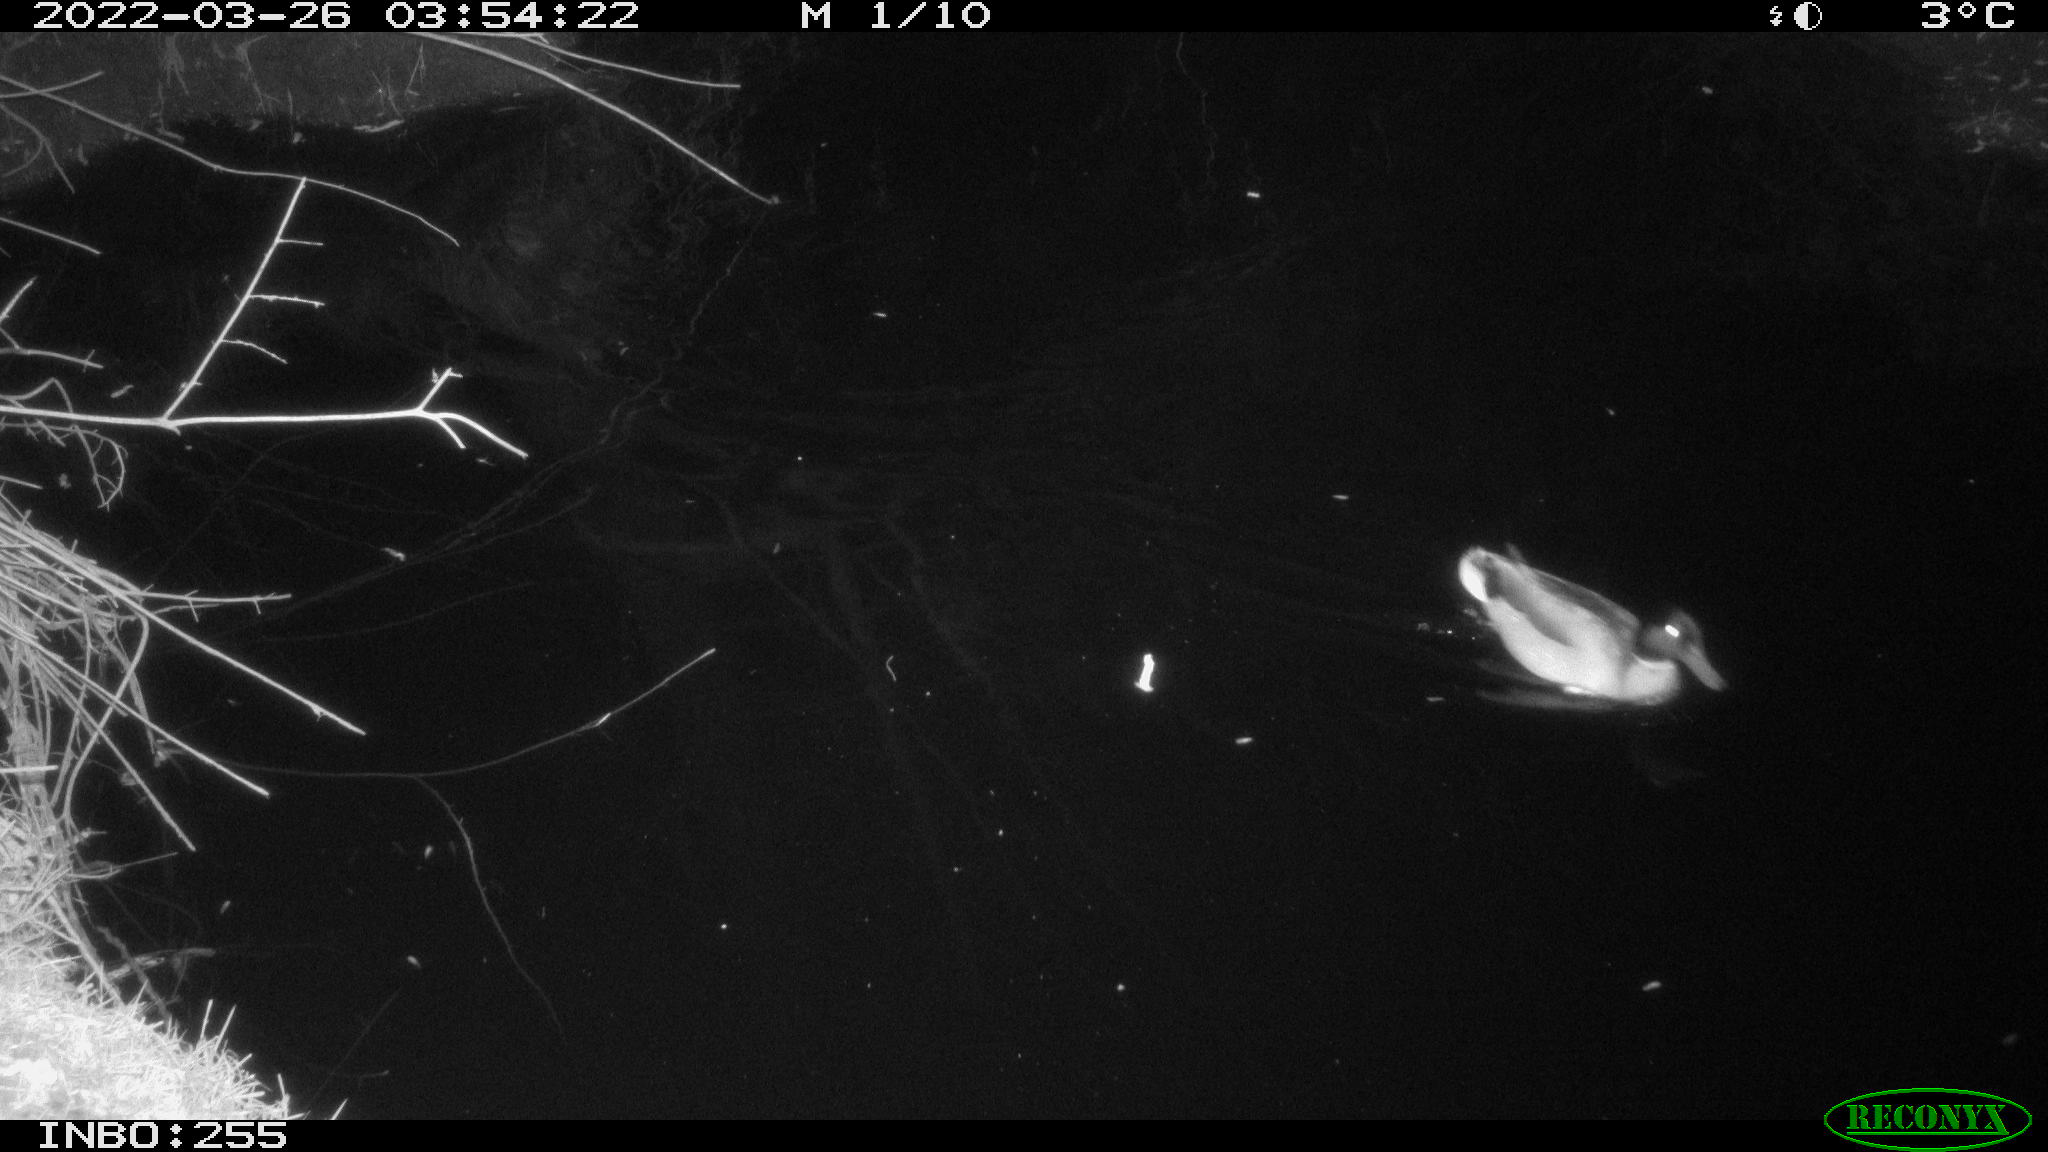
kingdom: Animalia
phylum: Chordata
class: Aves
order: Anseriformes
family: Anatidae
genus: Anas
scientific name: Anas platyrhynchos
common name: Mallard
